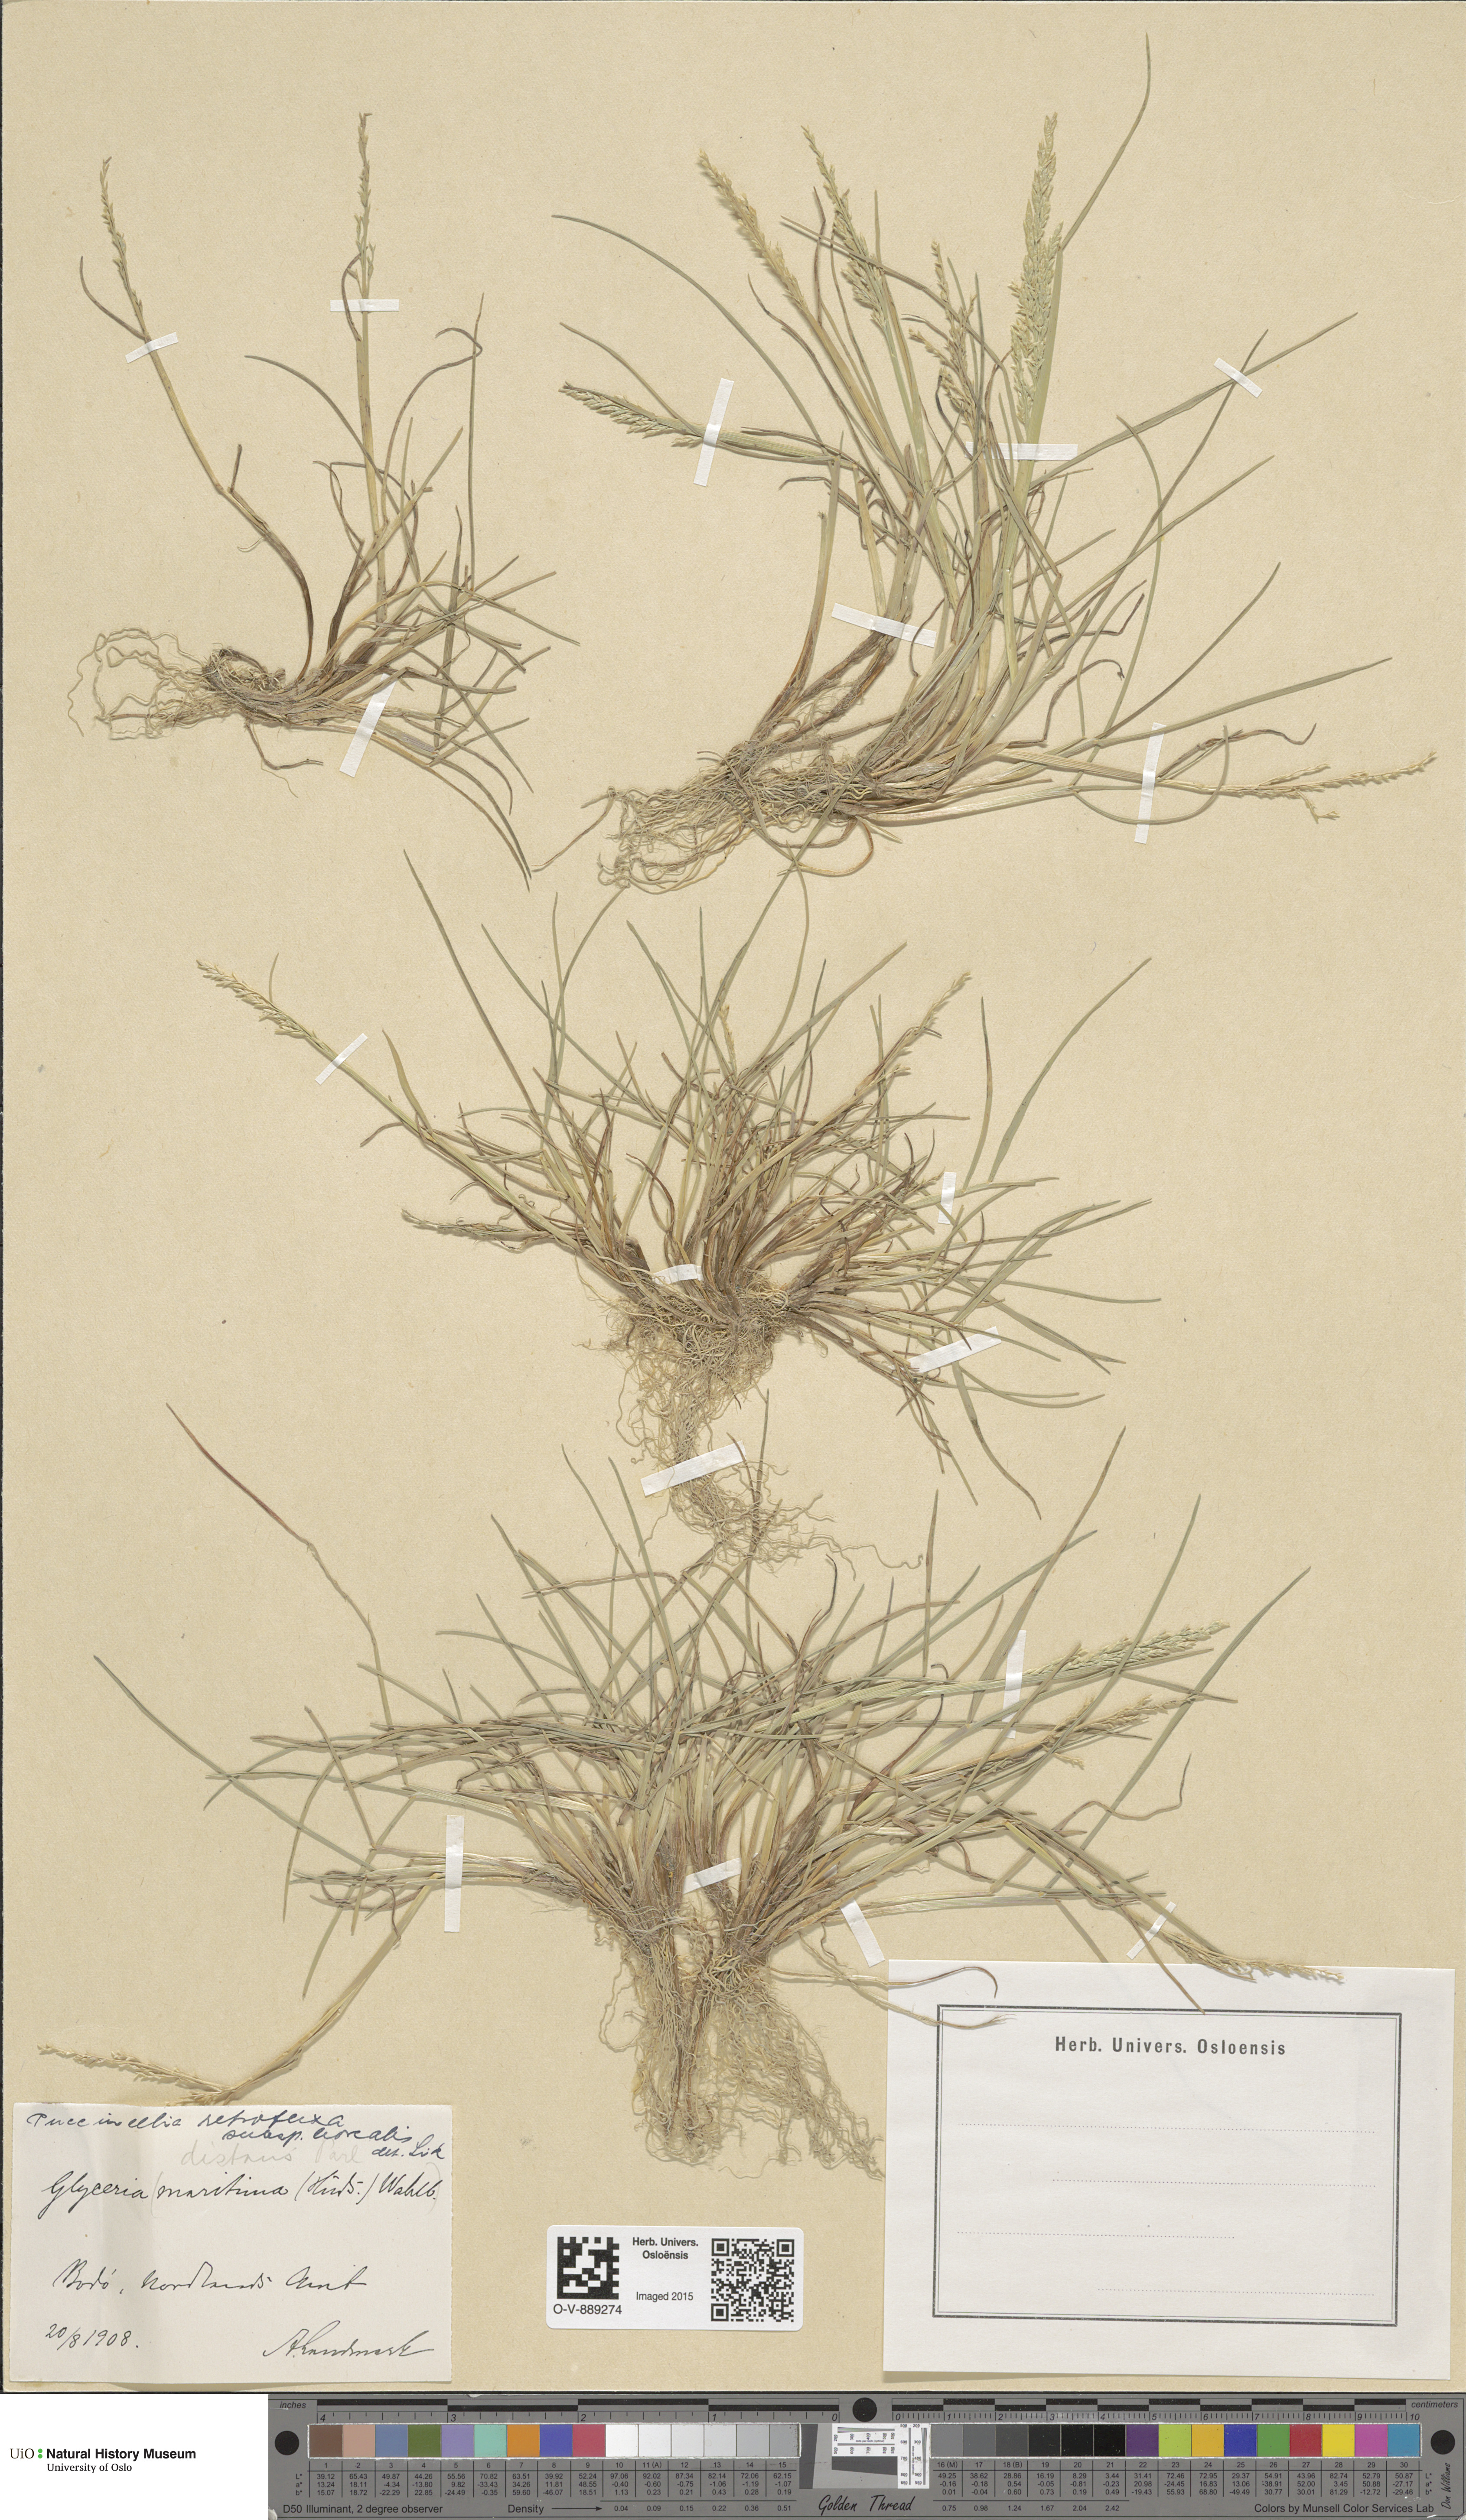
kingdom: Plantae
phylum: Tracheophyta
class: Liliopsida
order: Poales
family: Poaceae
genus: Puccinellia
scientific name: Puccinellia distans
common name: Weeping alkaligrass
